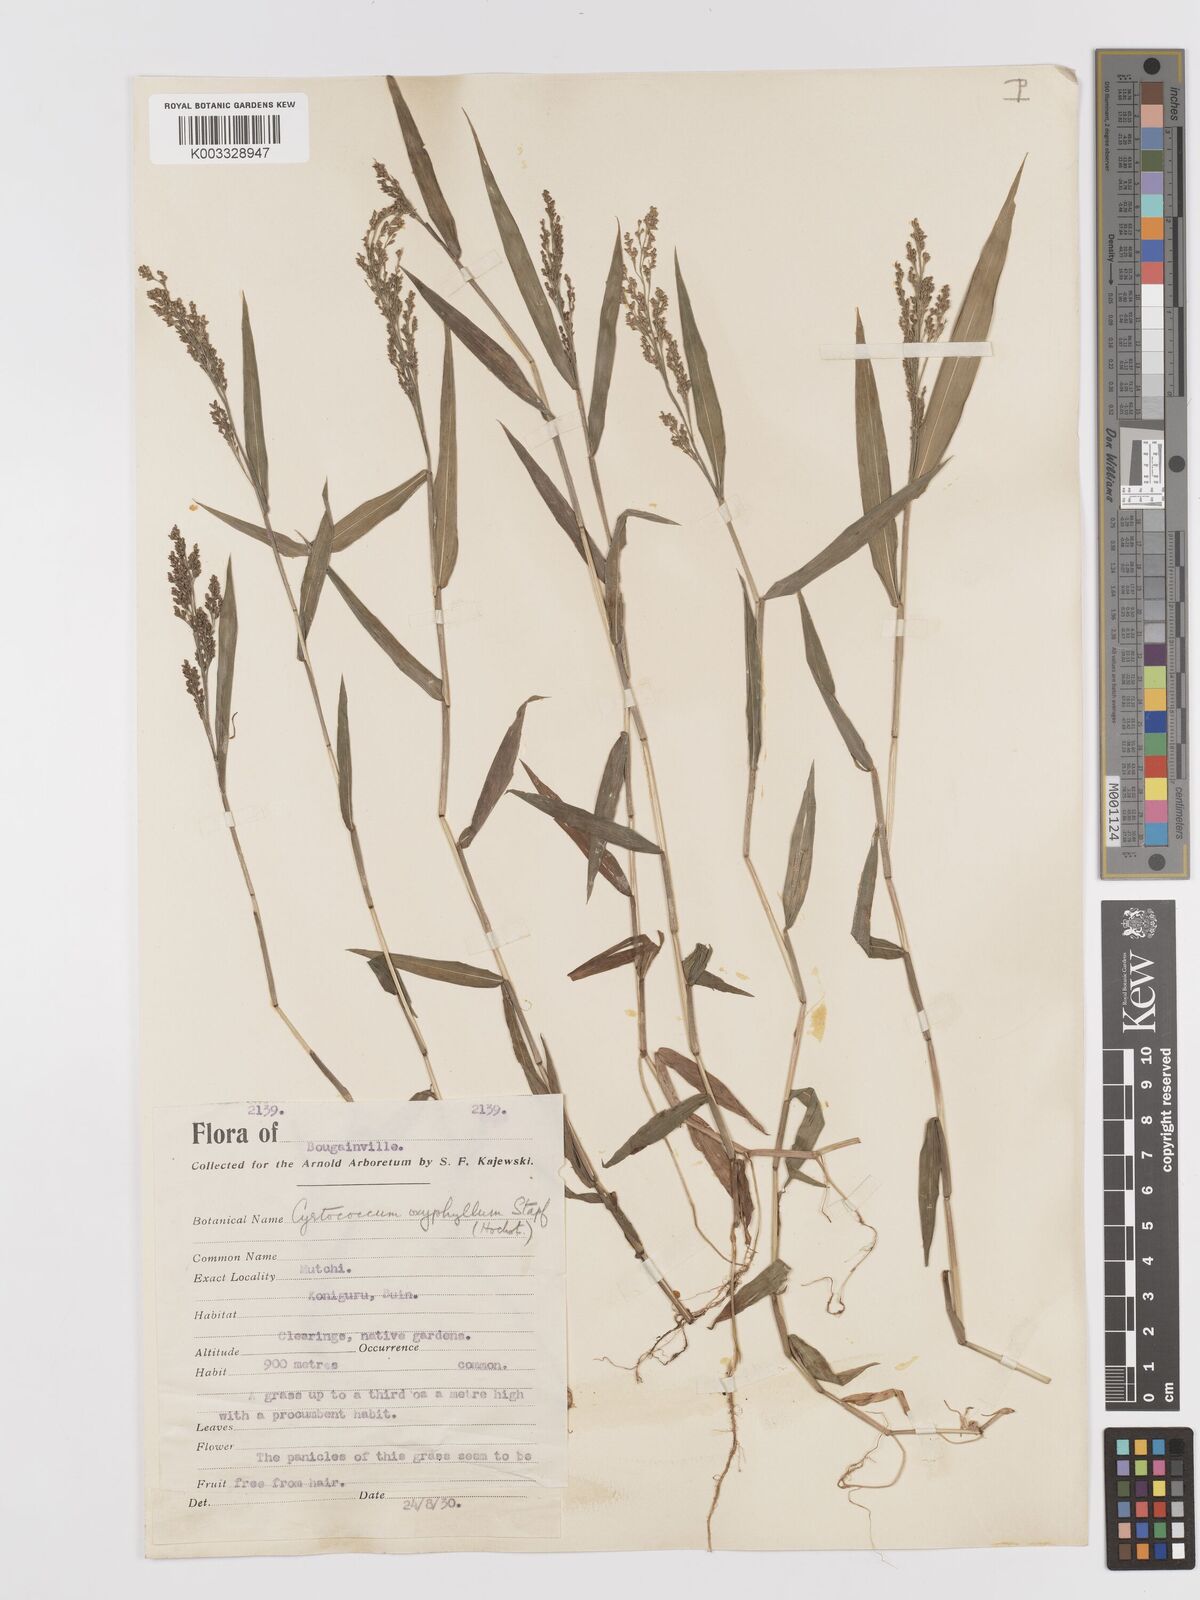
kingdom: Plantae
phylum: Tracheophyta
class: Liliopsida
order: Poales
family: Poaceae
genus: Cyrtococcum
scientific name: Cyrtococcum oxyphyllum
